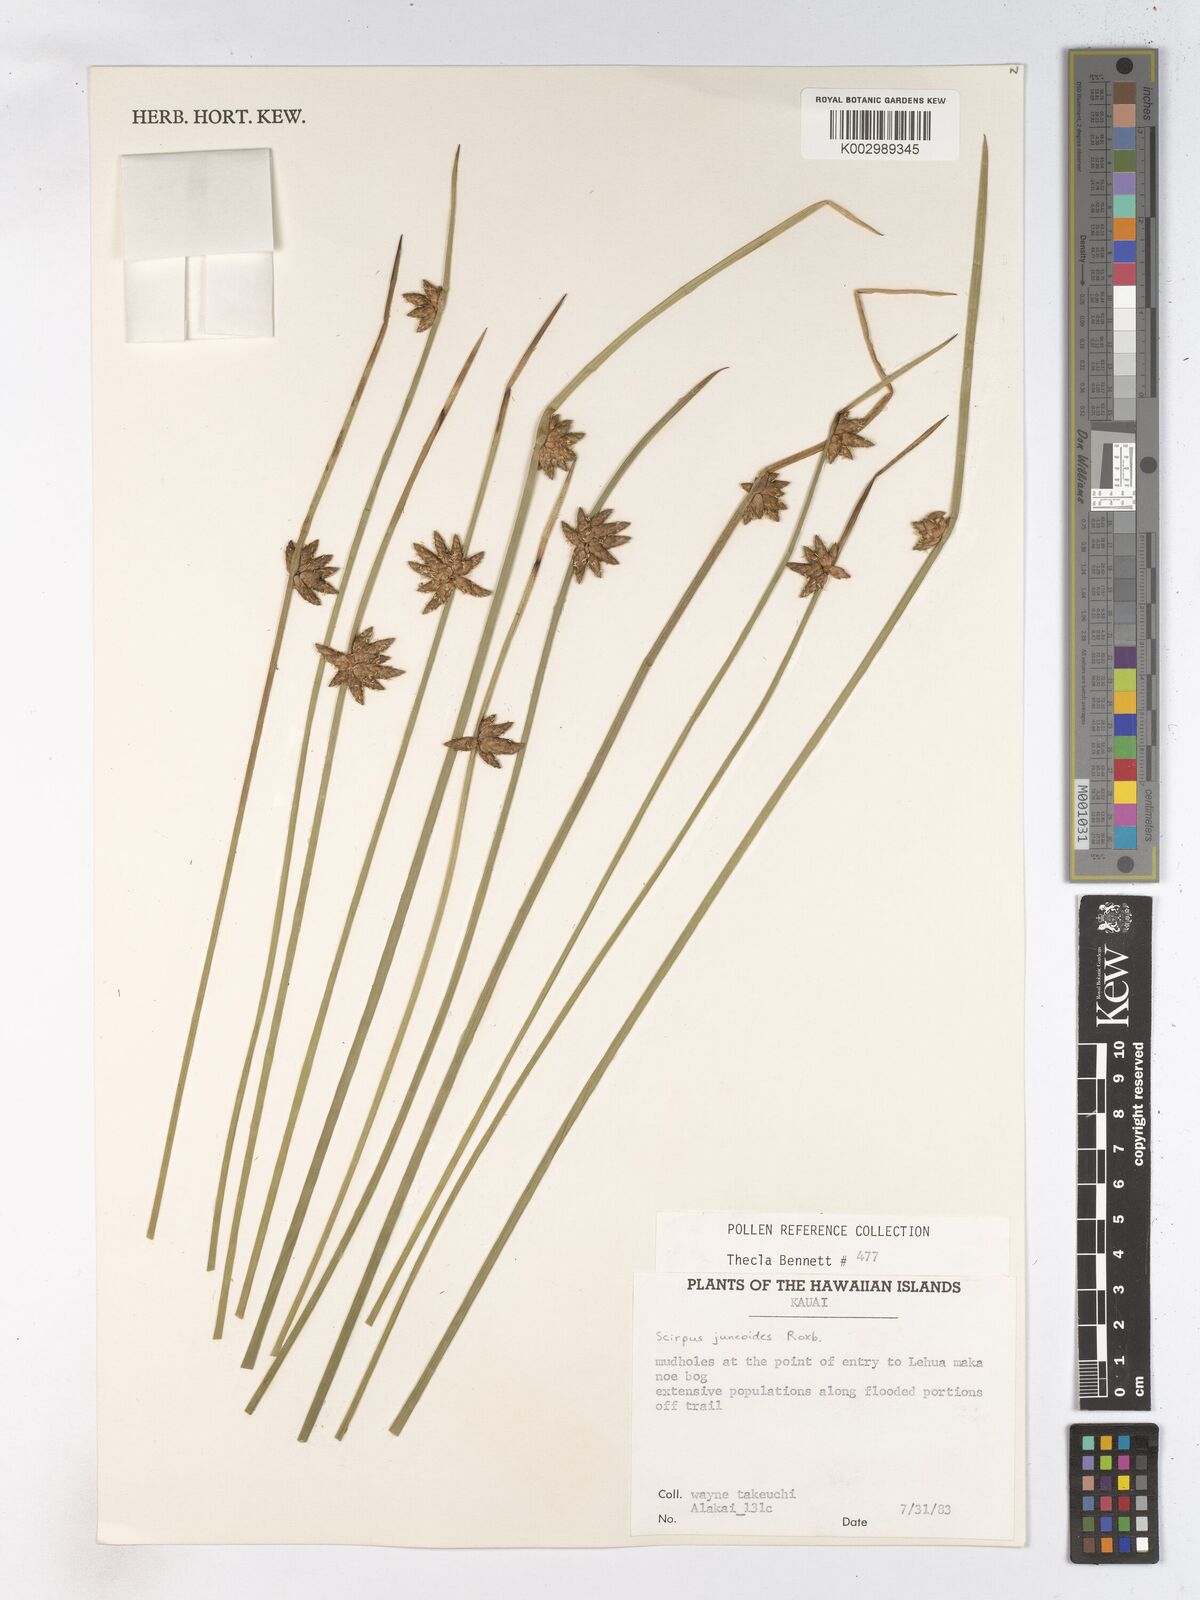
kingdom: Plantae
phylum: Tracheophyta
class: Liliopsida
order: Poales
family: Cyperaceae
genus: Schoenoplectiella
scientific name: Schoenoplectiella juncoides
